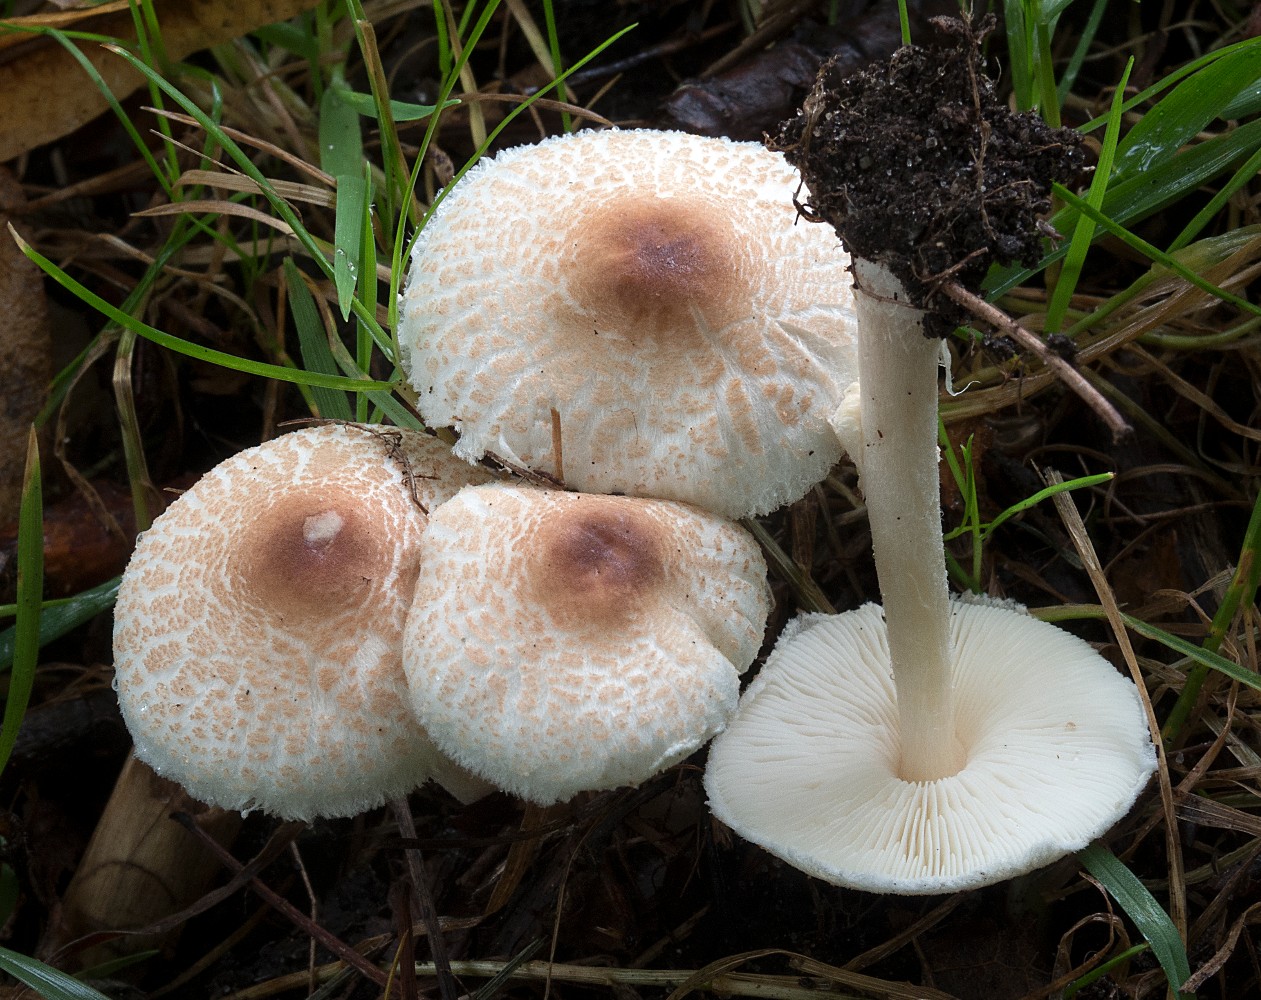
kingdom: Fungi
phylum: Basidiomycota
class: Agaricomycetes
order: Agaricales
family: Agaricaceae
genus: Lepiota
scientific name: Lepiota cristata
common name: stinkende parasolhat
